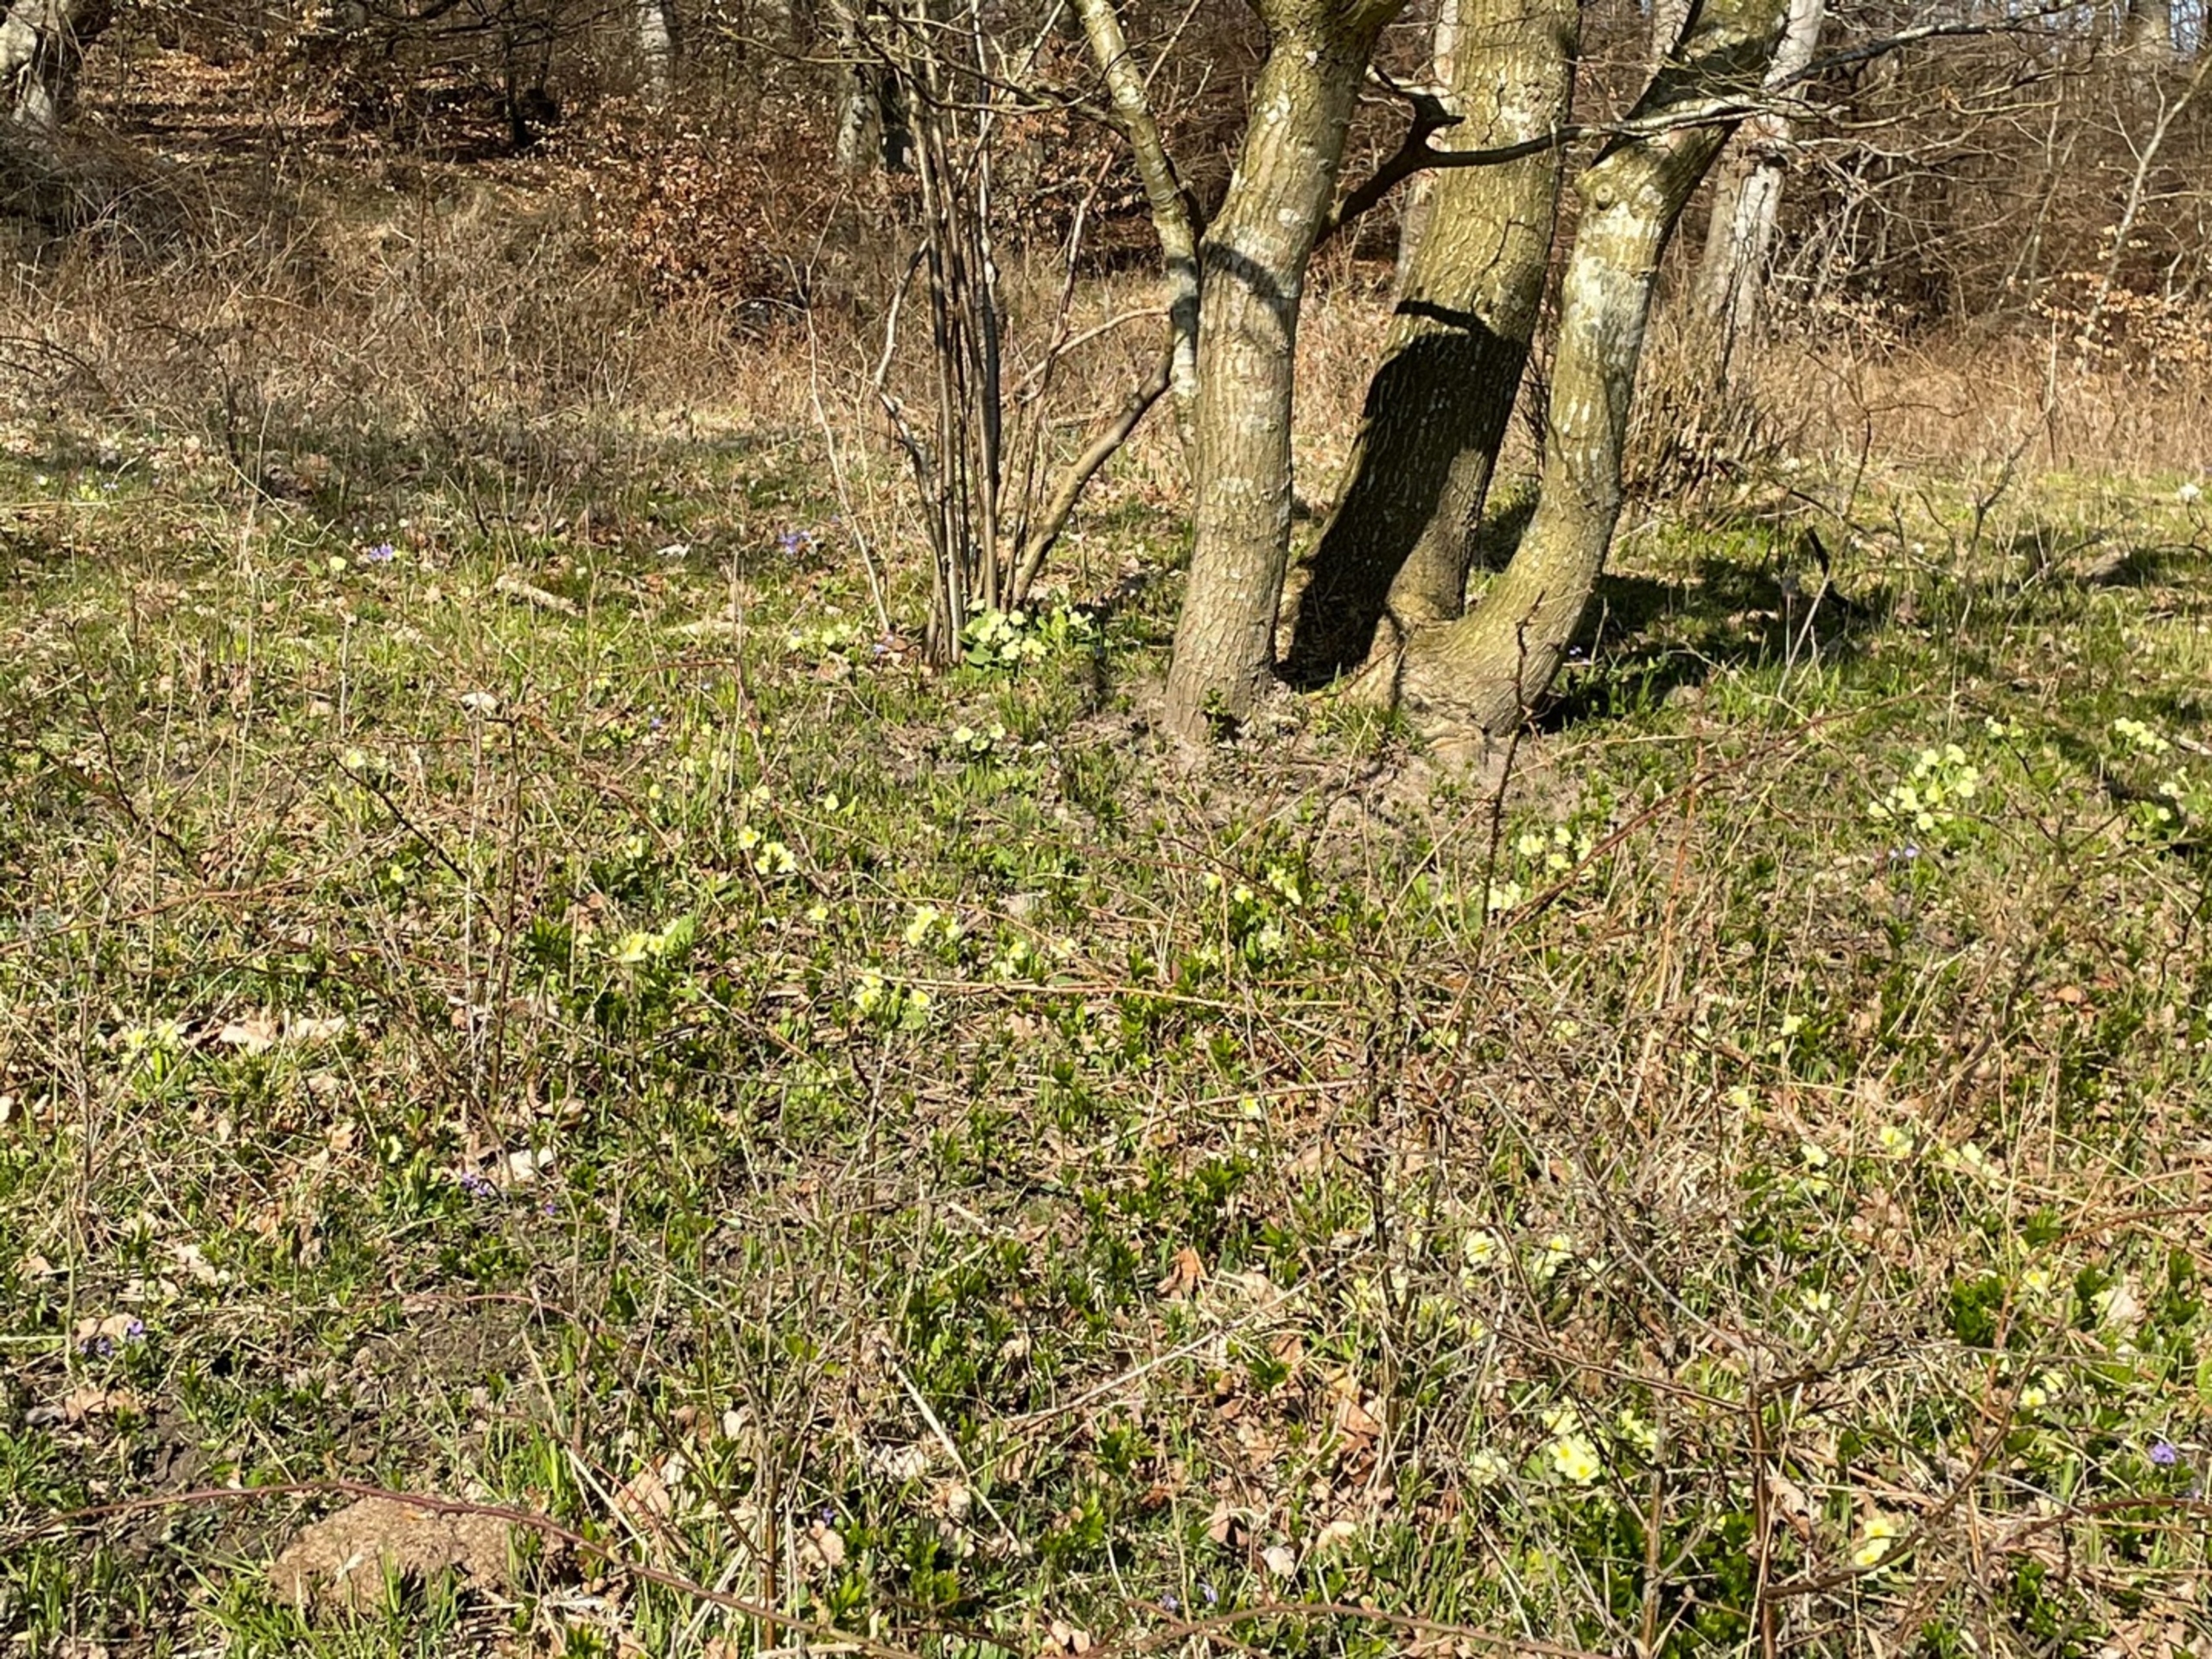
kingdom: Plantae
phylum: Tracheophyta
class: Magnoliopsida
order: Ericales
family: Primulaceae
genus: Primula
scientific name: Primula vulgaris
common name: Storblomstret kodriver
